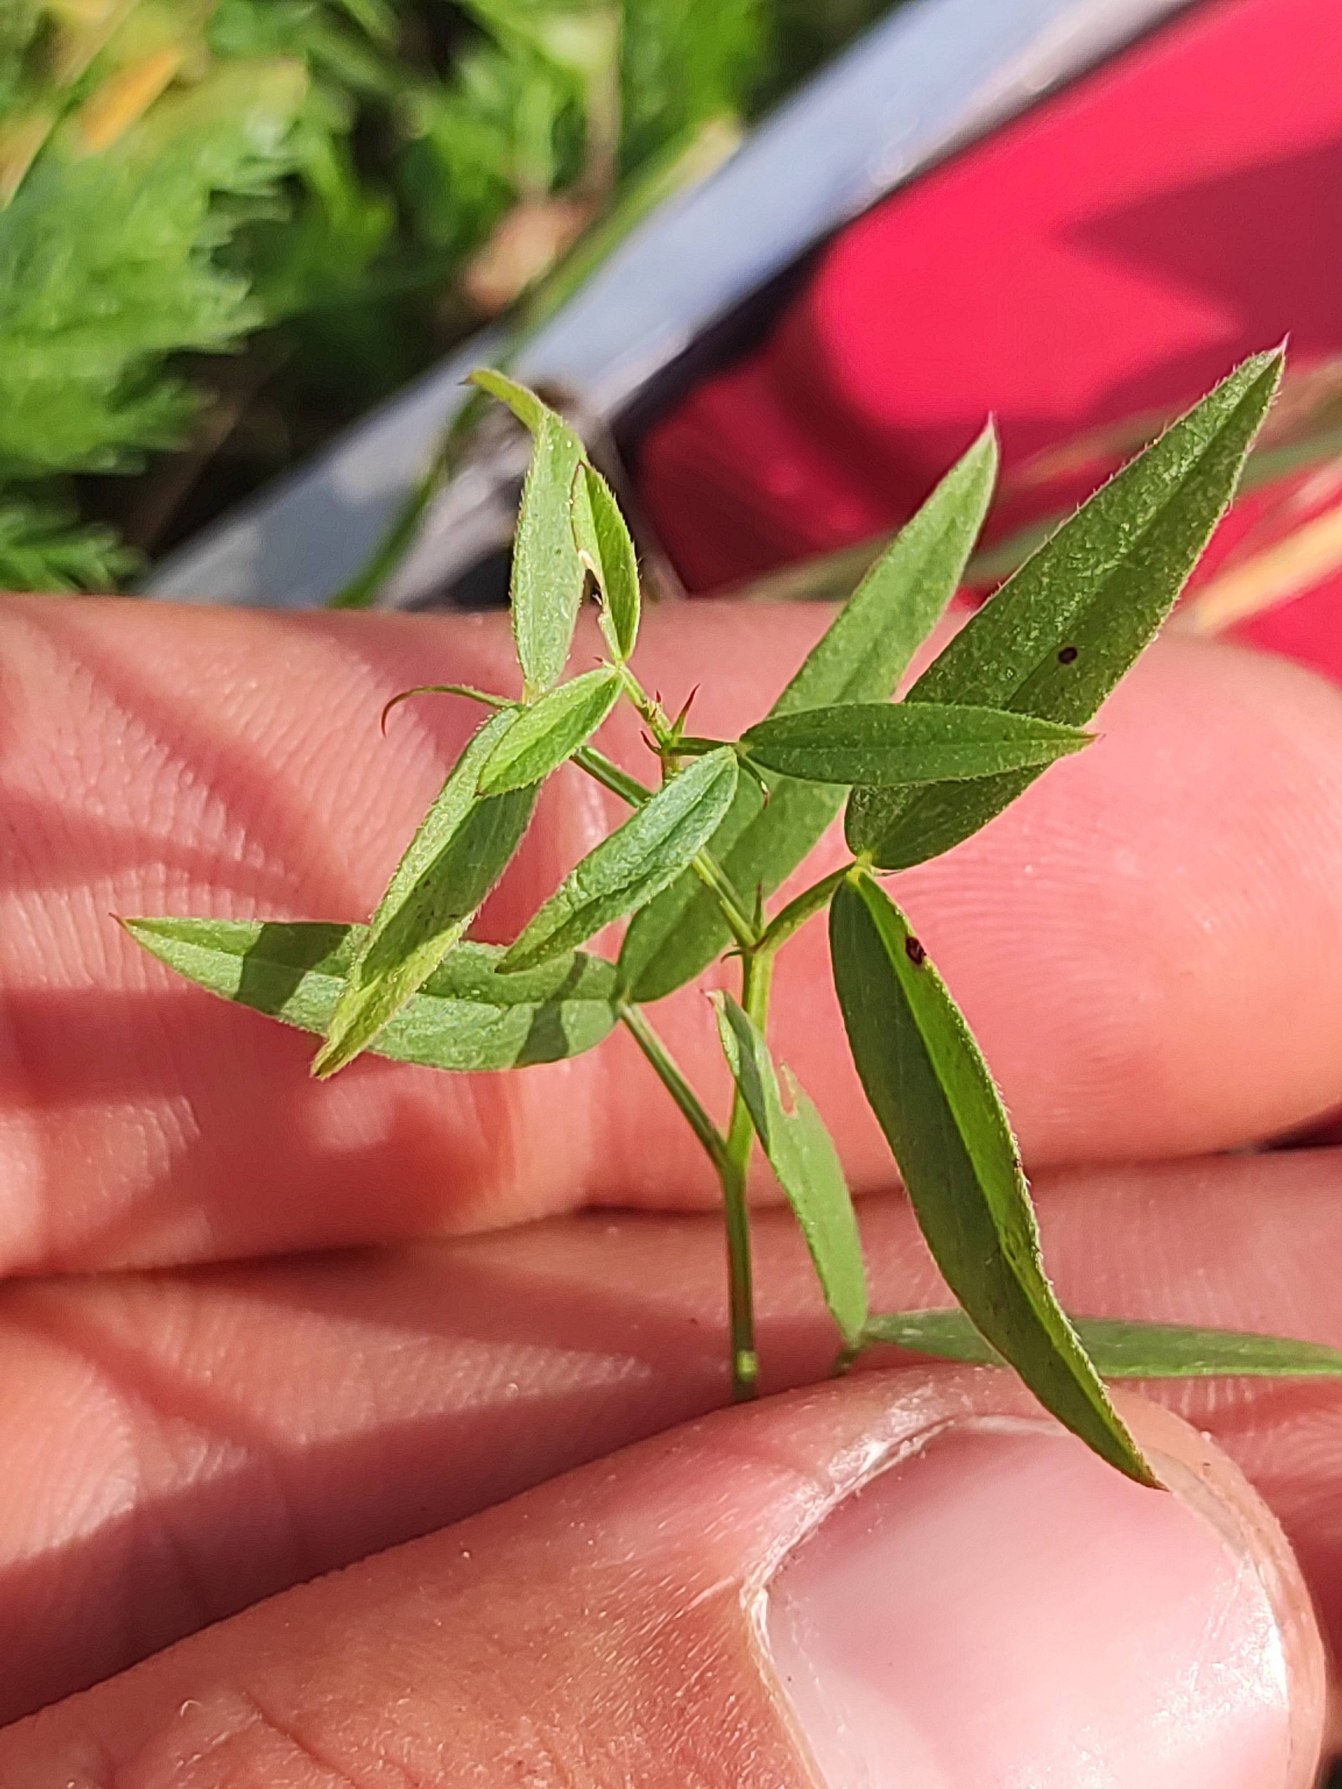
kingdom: Plantae
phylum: Tracheophyta
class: Magnoliopsida
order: Fabales
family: Fabaceae
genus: Lathyrus
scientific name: Lathyrus pratensis
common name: Gul fladbælg
